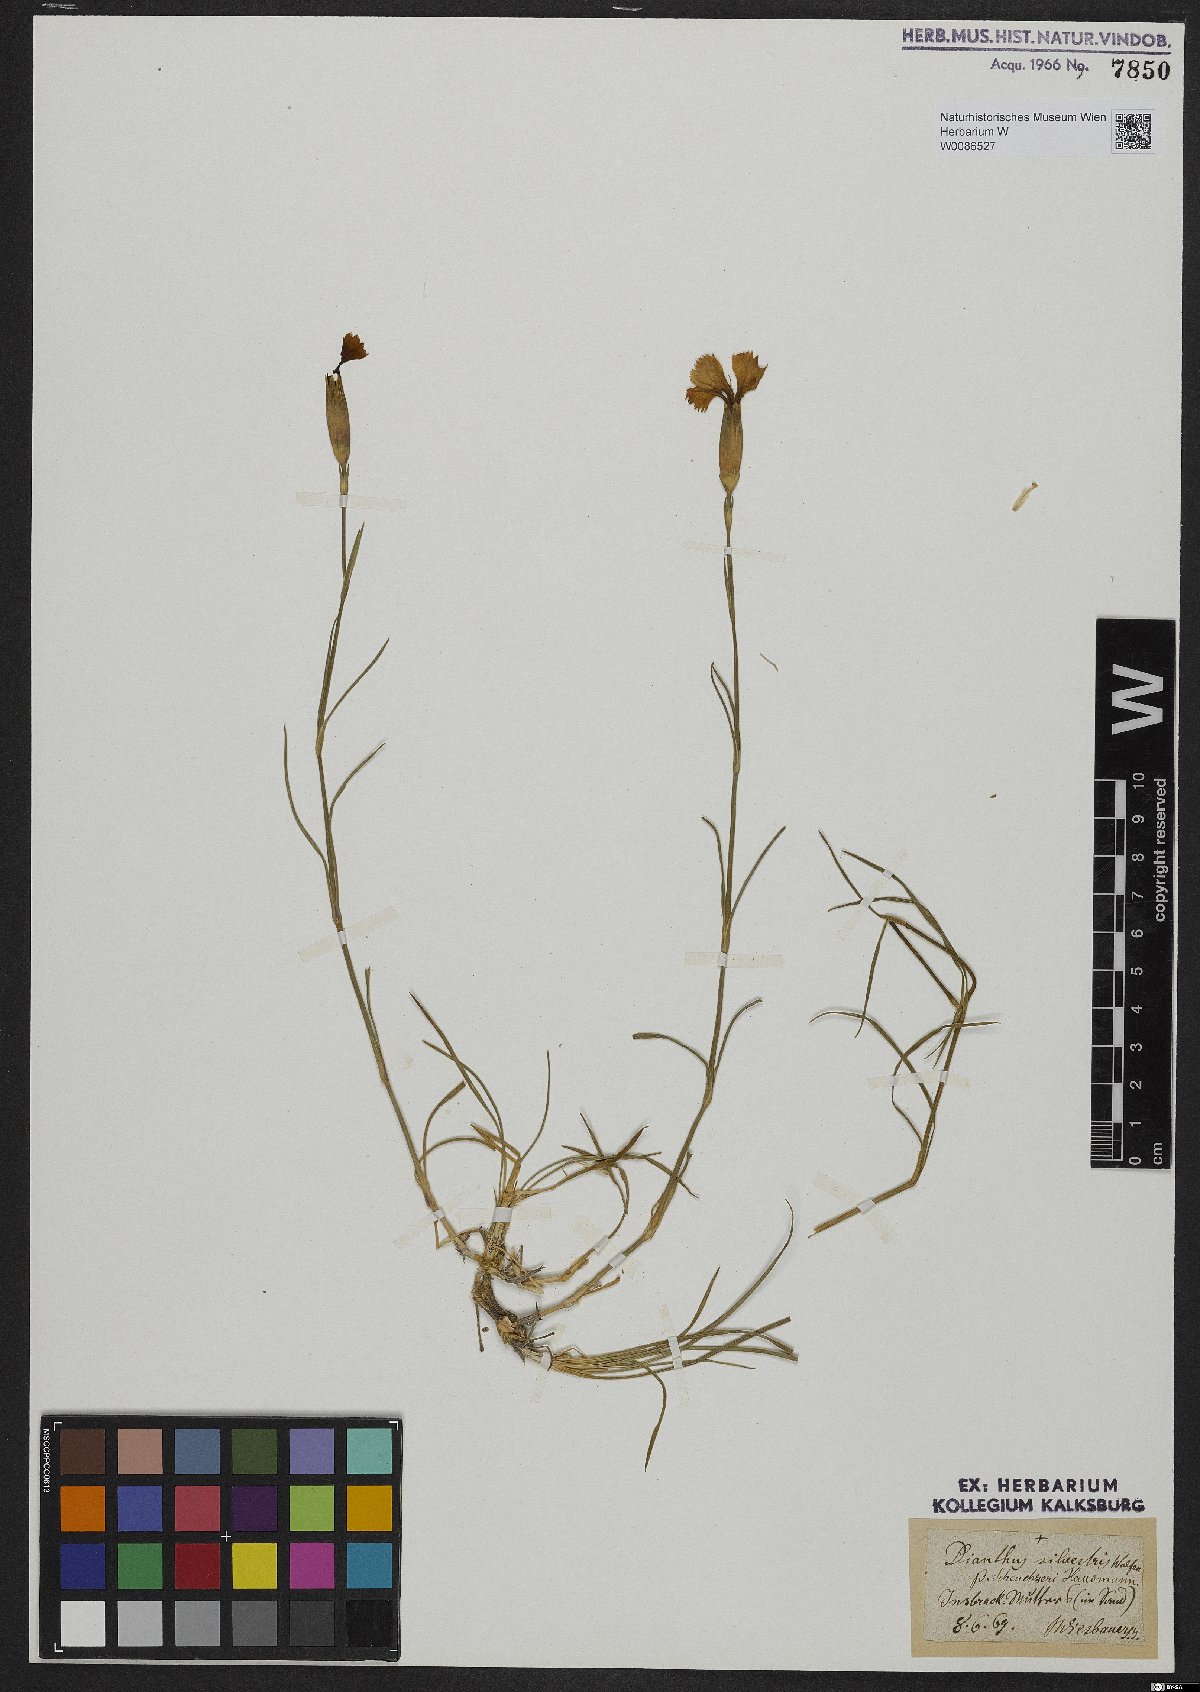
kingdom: Plantae
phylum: Tracheophyta
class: Magnoliopsida
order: Caryophyllales
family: Caryophyllaceae
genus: Dianthus
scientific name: Dianthus sylvestris
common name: Wood pink
